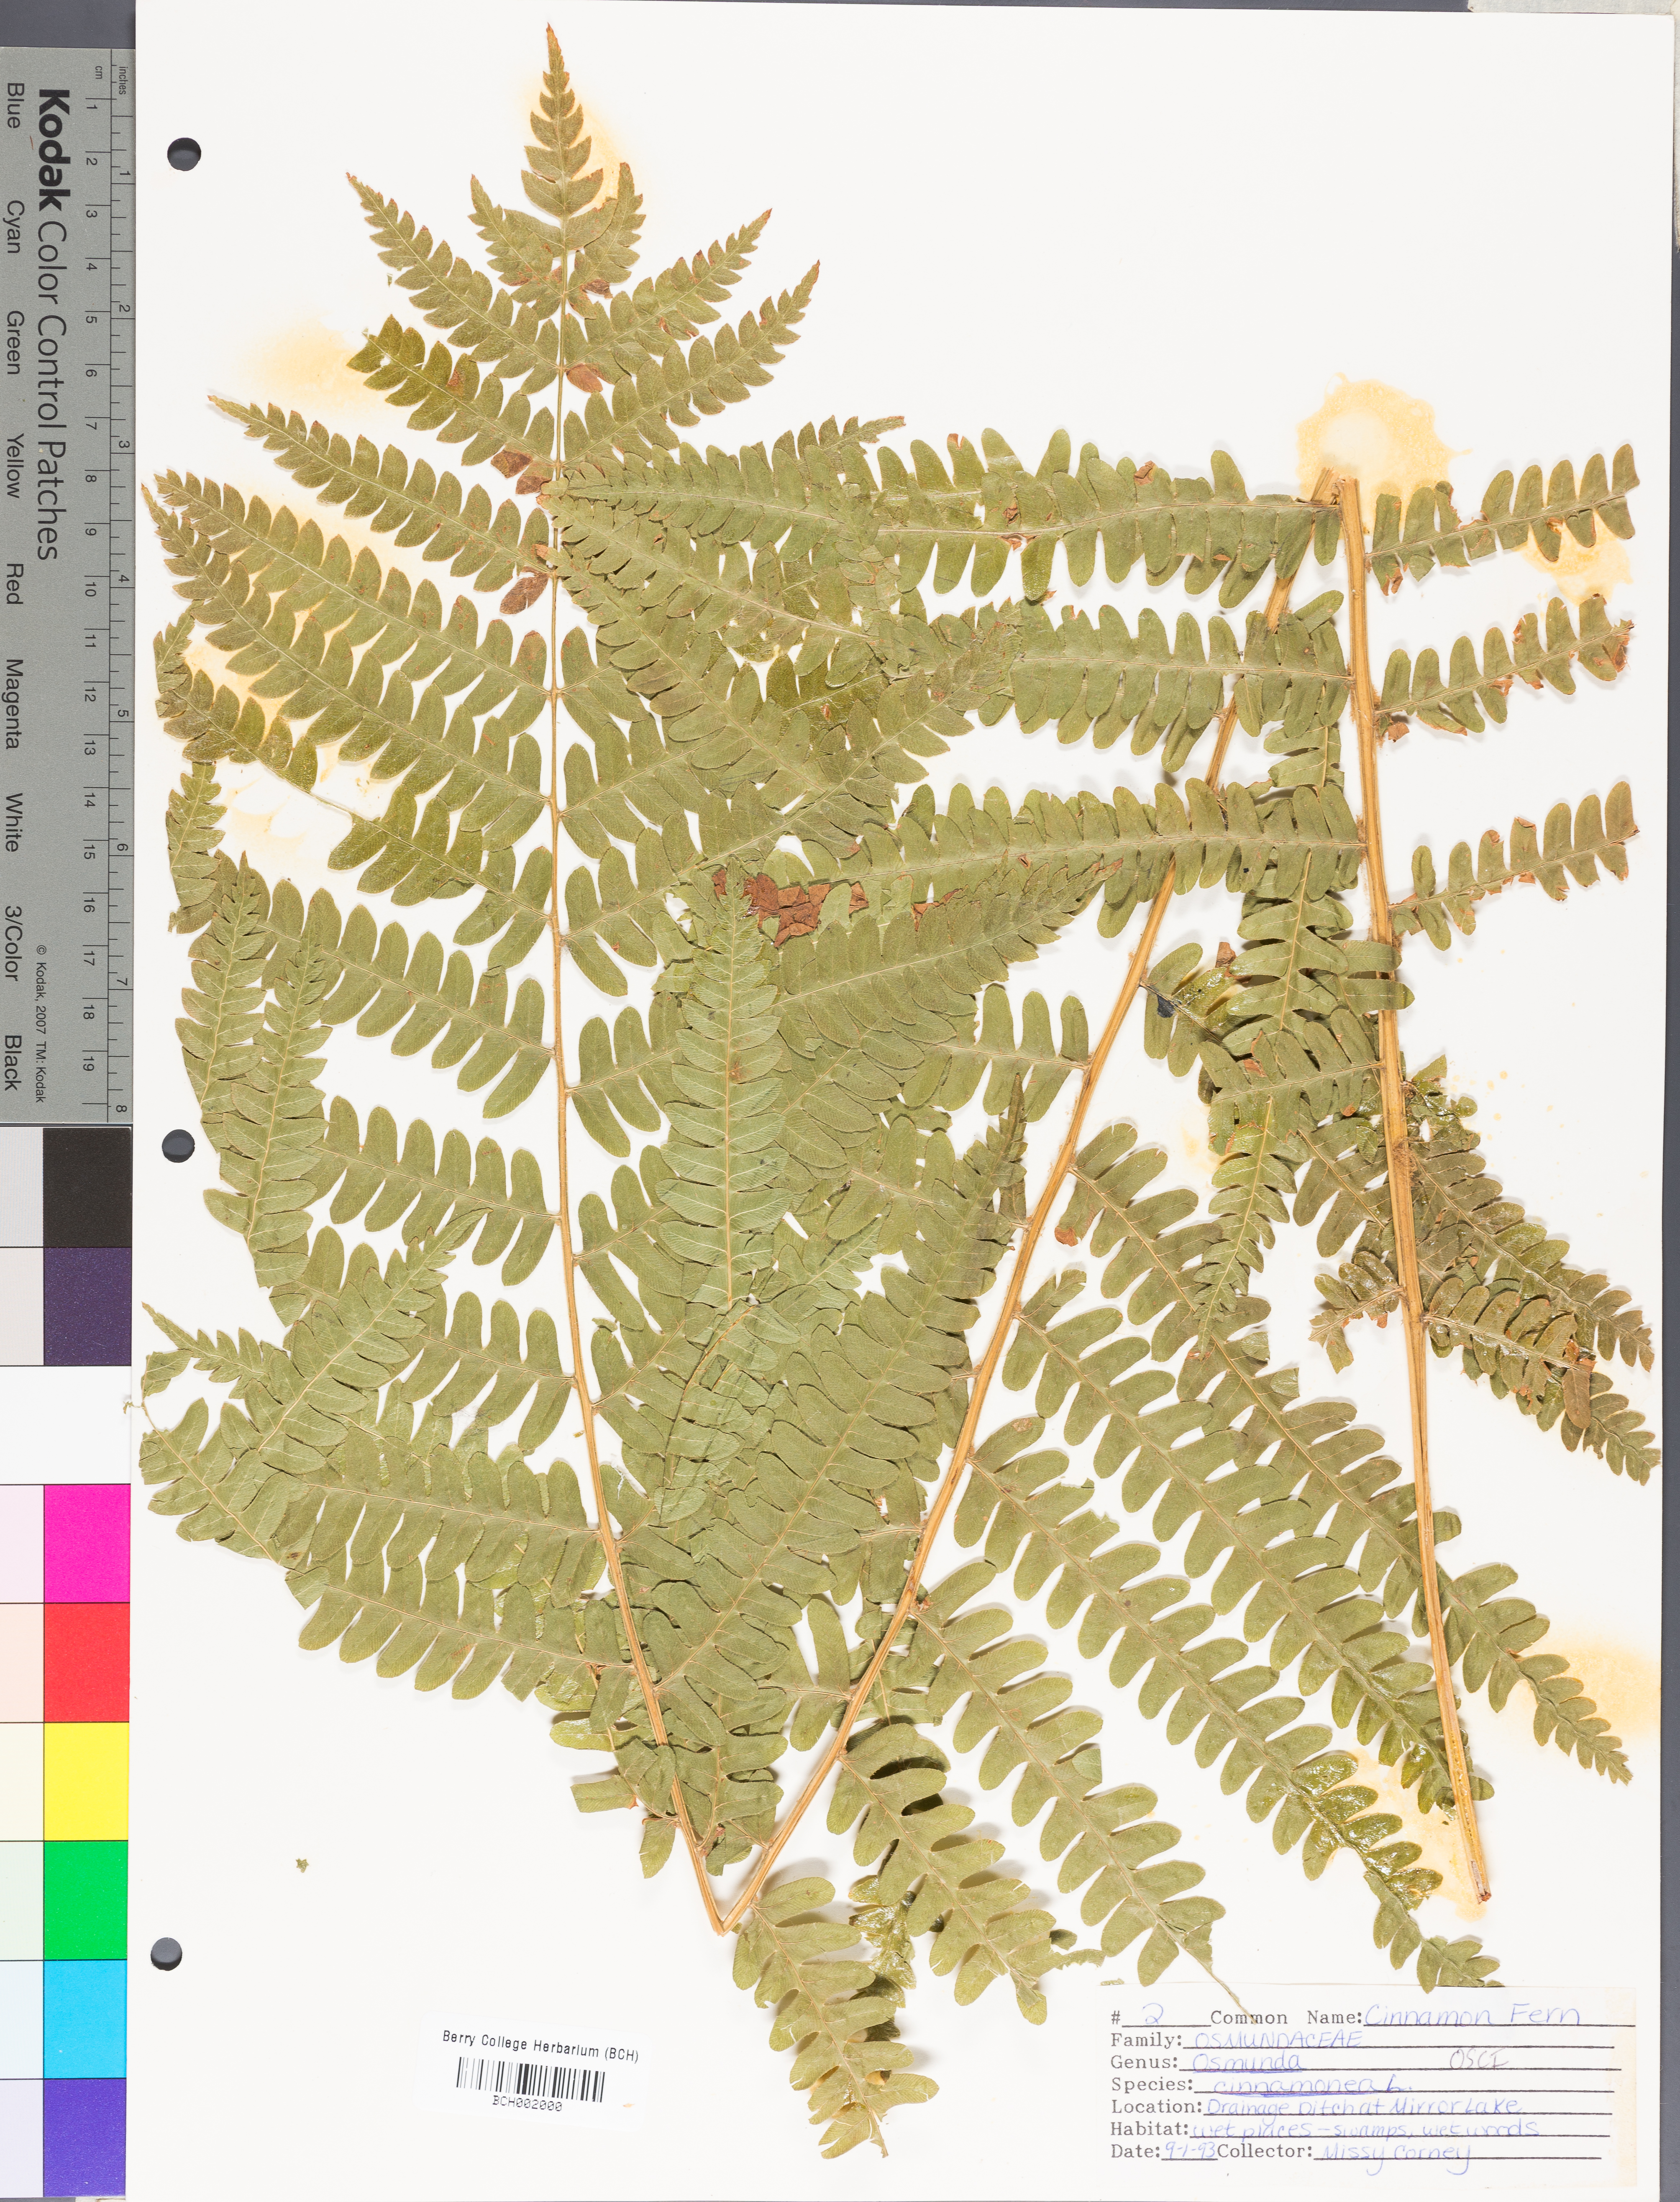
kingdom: Plantae
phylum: Tracheophyta
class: Polypodiopsida
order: Osmundales
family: Osmundaceae
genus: Osmundastrum
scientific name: Osmundastrum cinnamomeum
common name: Cinnamon fern
